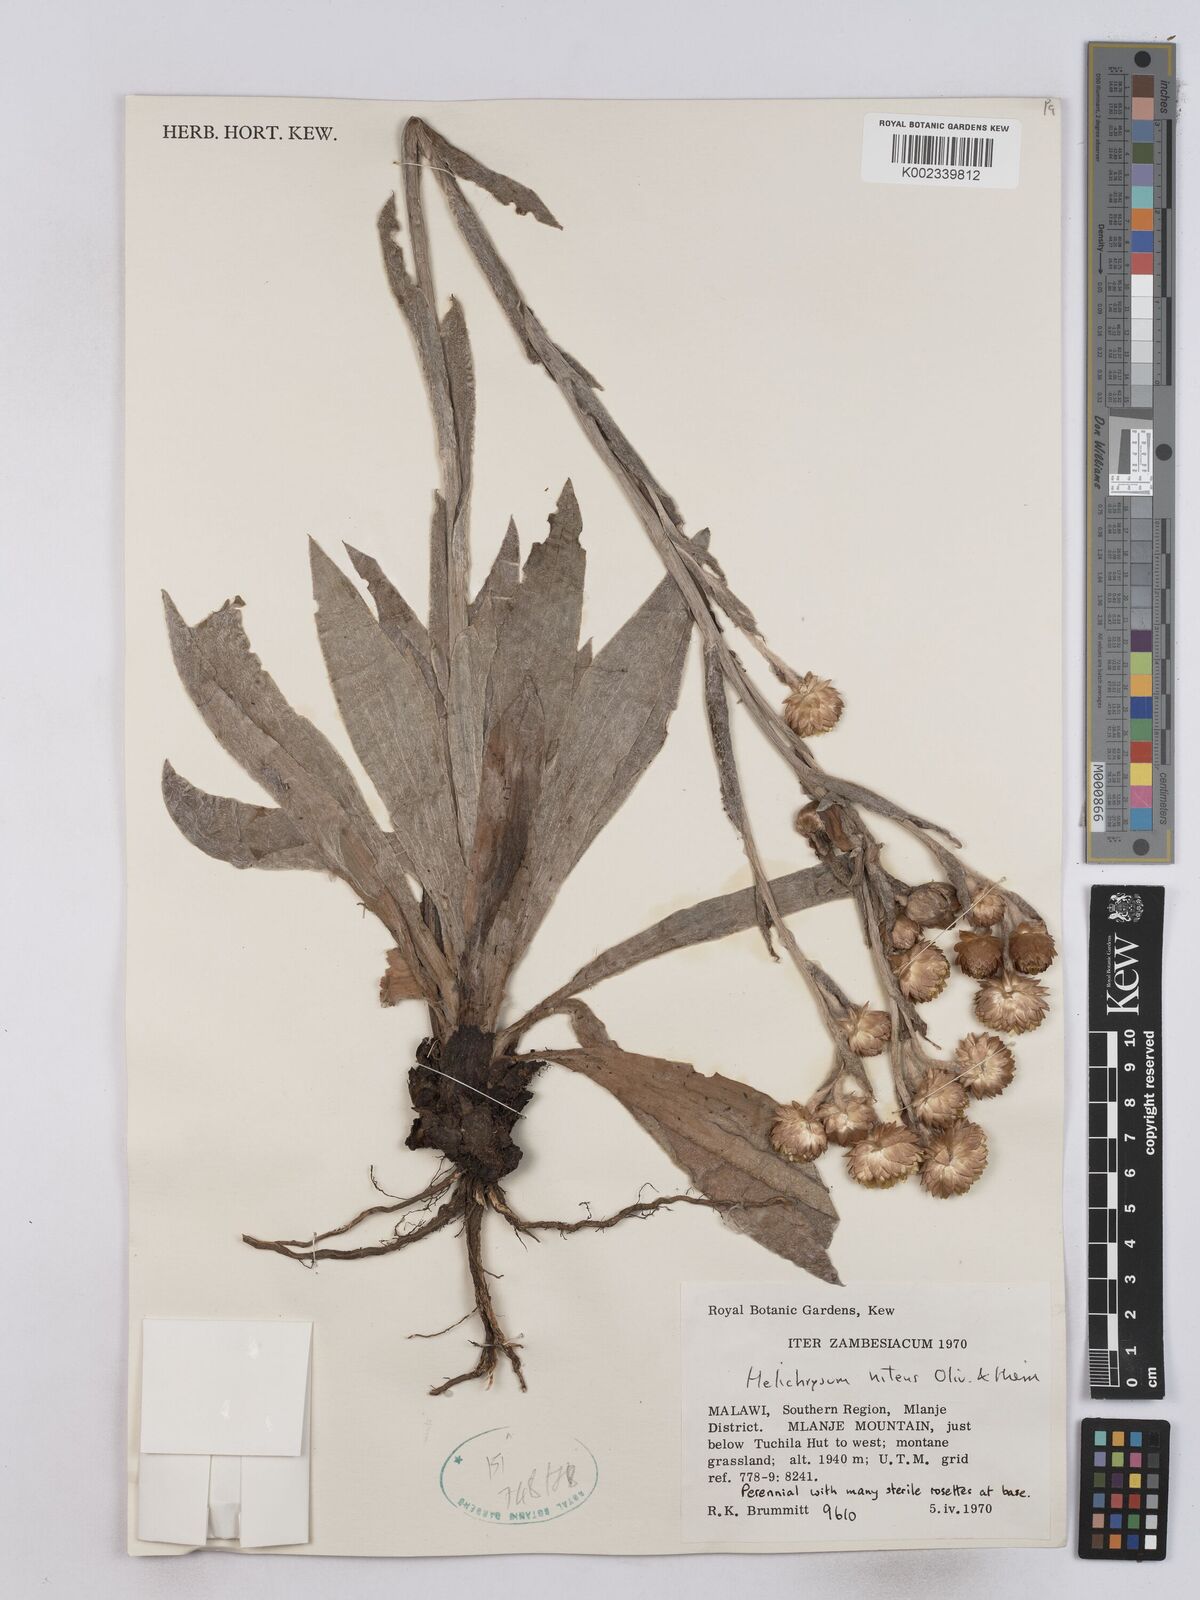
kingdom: Plantae
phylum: Tracheophyta
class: Magnoliopsida
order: Asterales
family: Asteraceae
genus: Helichrysum
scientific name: Helichrysum nitens
